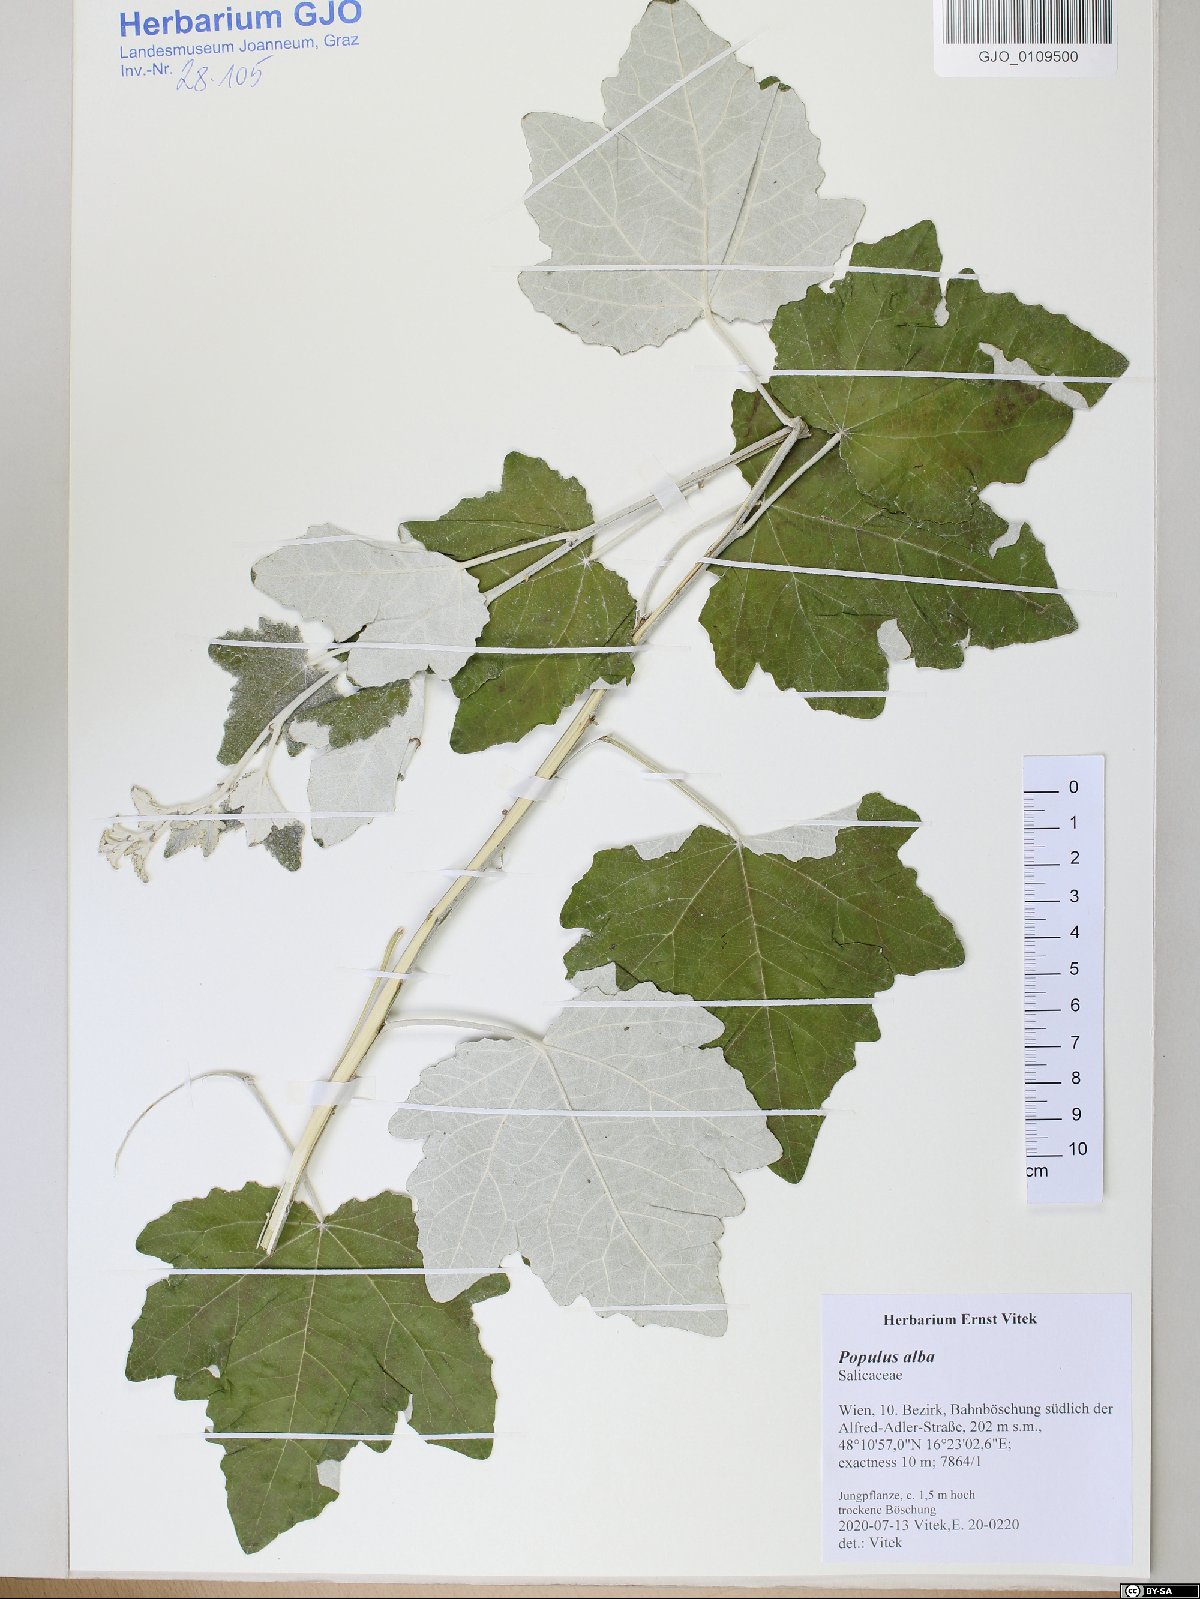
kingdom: Plantae
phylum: Tracheophyta
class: Magnoliopsida
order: Malpighiales
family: Salicaceae
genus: Populus
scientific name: Populus alba
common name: White poplar
